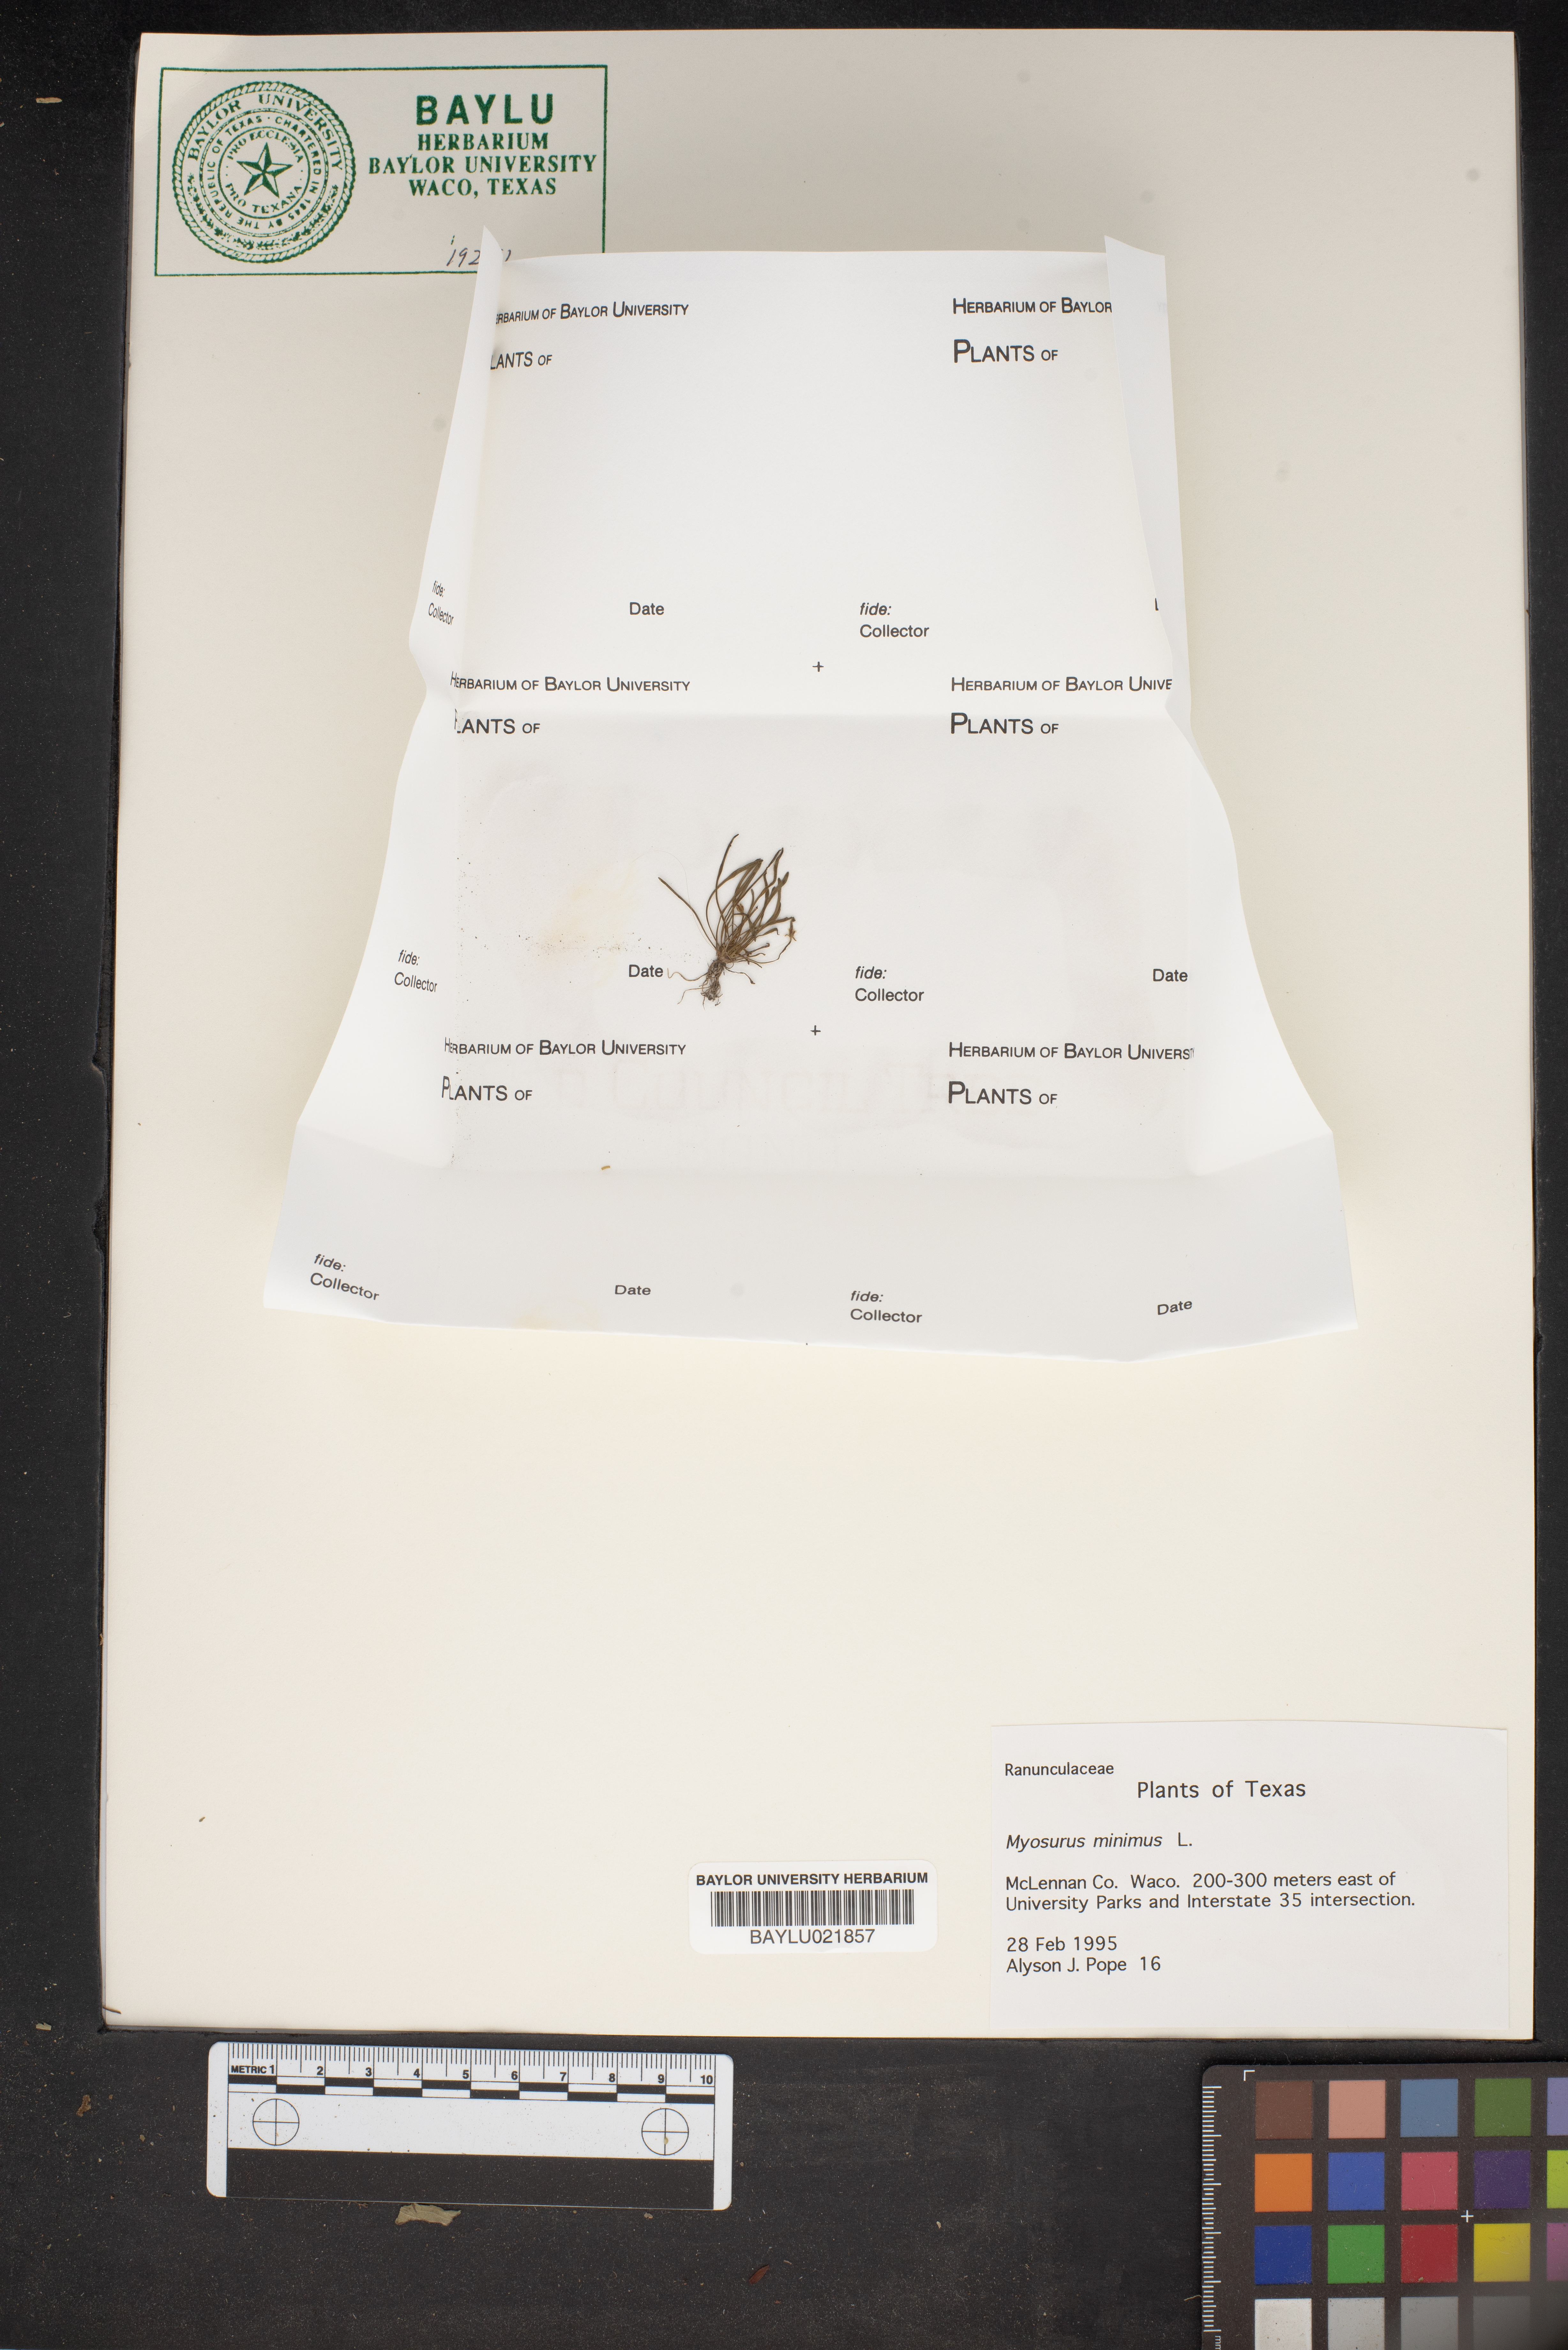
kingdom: Plantae
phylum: Tracheophyta
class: Magnoliopsida
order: Ranunculales
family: Ranunculaceae
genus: Myosurus
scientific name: Myosurus minimus
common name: Mousetail
